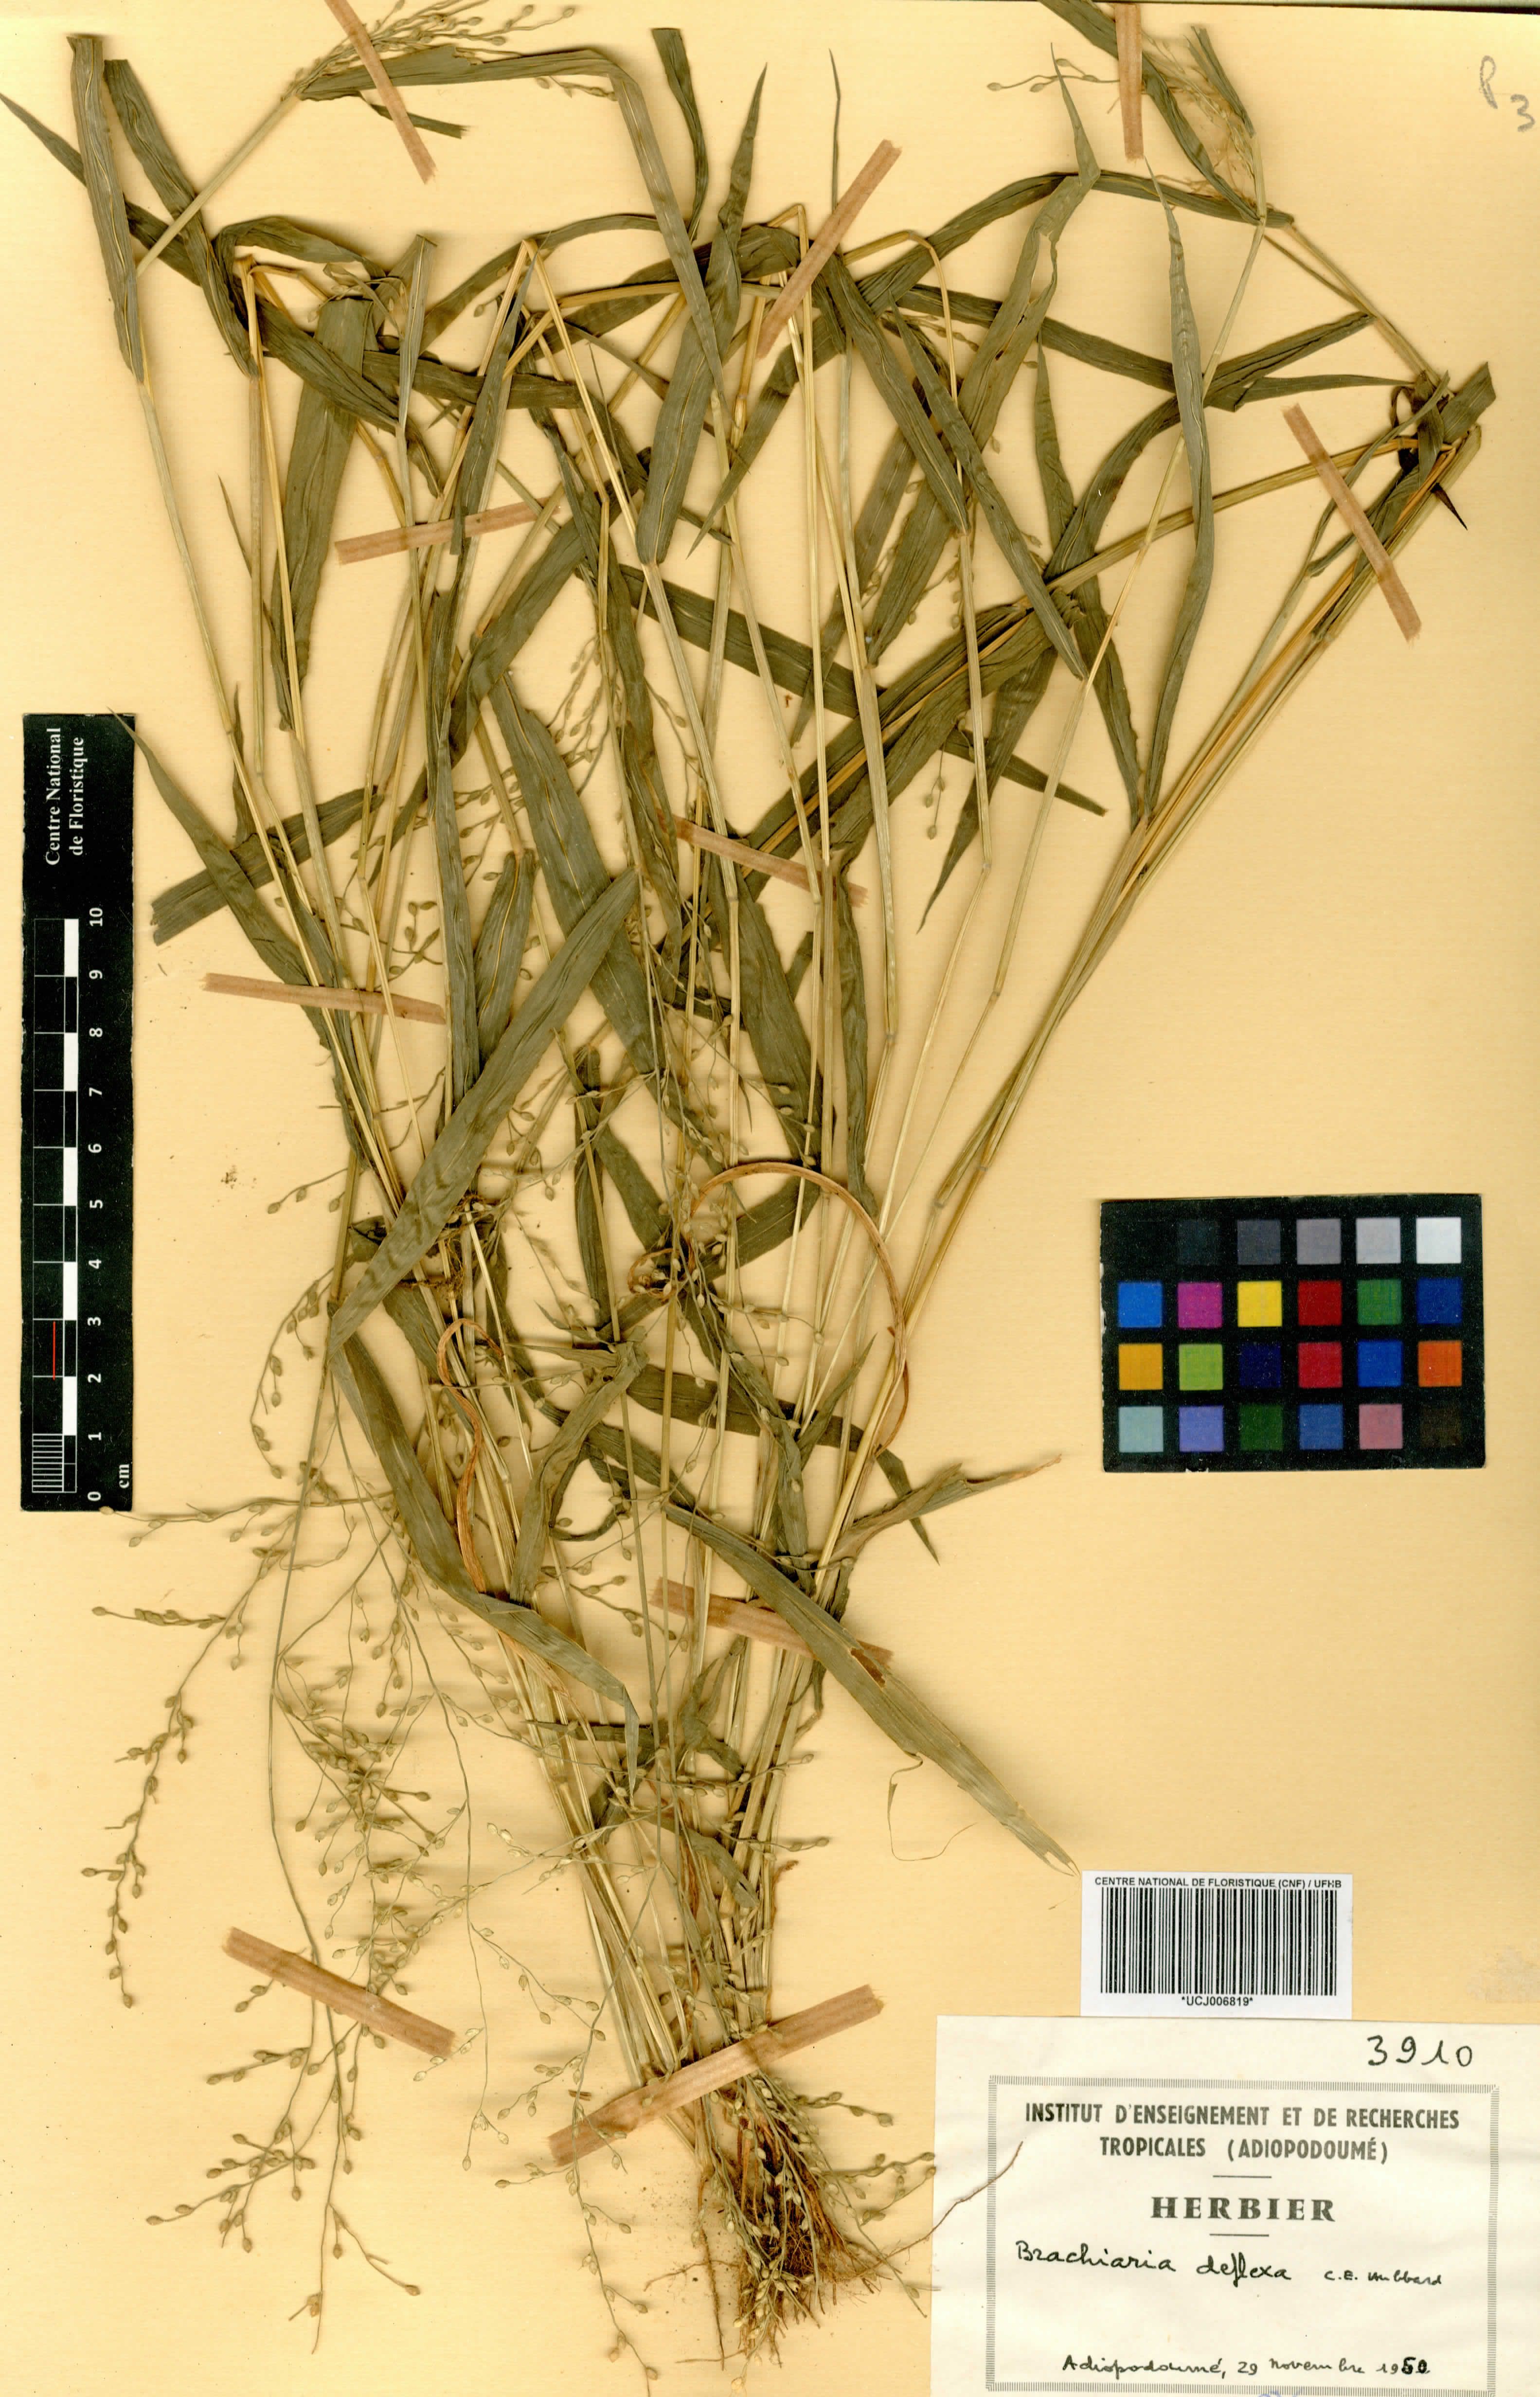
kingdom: Plantae
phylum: Tracheophyta
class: Liliopsida
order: Poales
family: Poaceae
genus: Urochloa
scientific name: Urochloa deflexa
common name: Guinea millet
